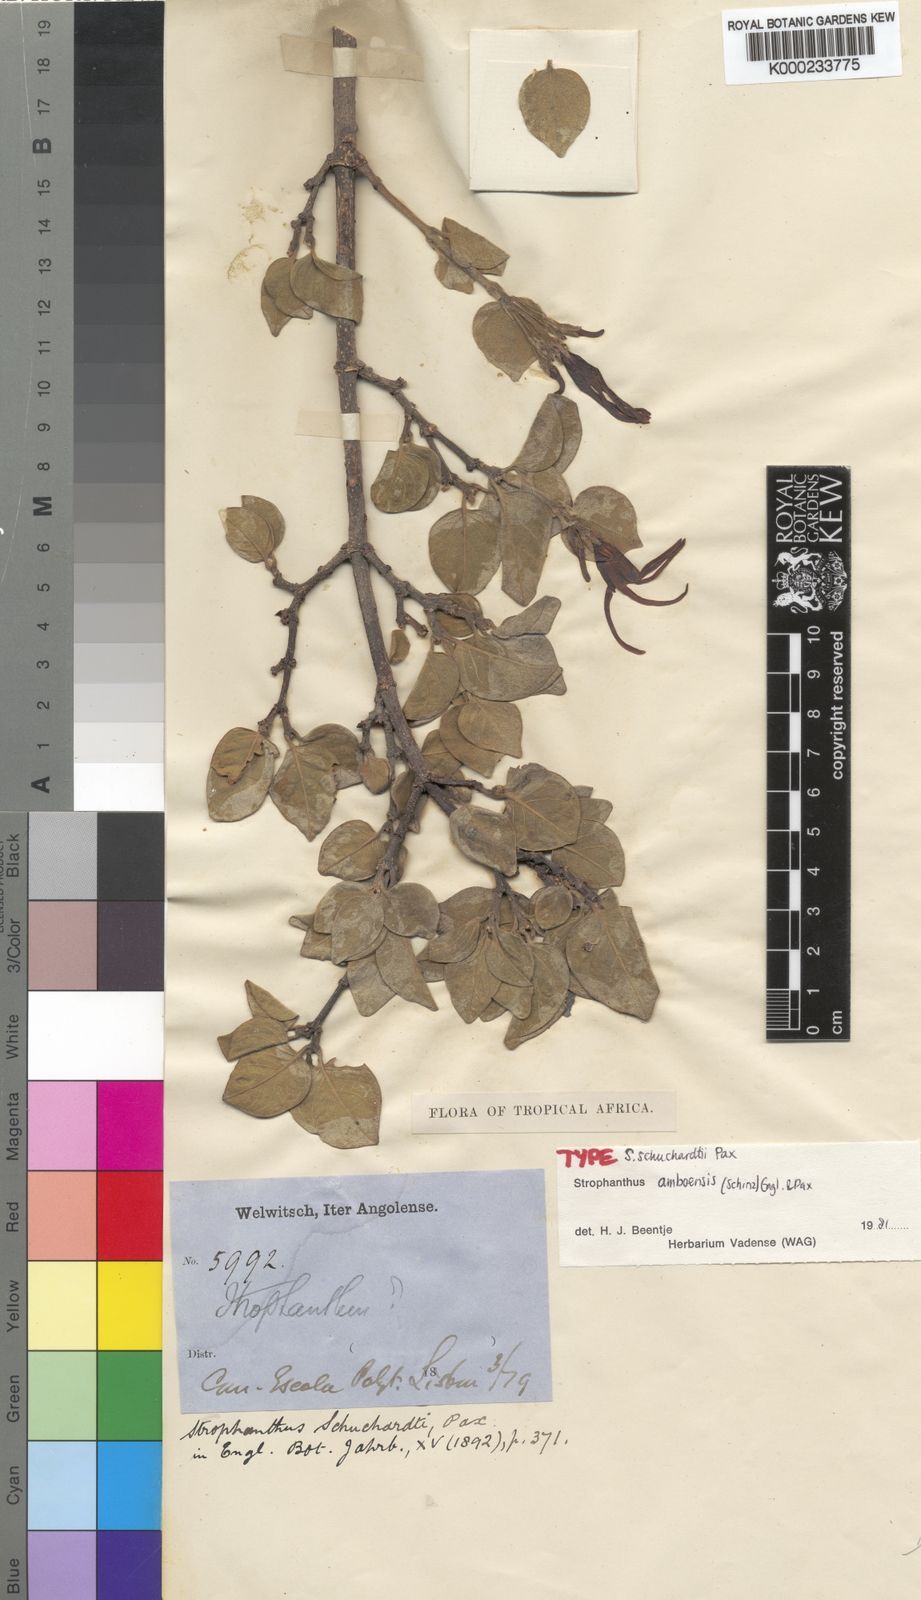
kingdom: Plantae
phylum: Tracheophyta
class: Magnoliopsida
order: Gentianales
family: Apocynaceae
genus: Strophanthus
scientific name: Strophanthus amboensis
